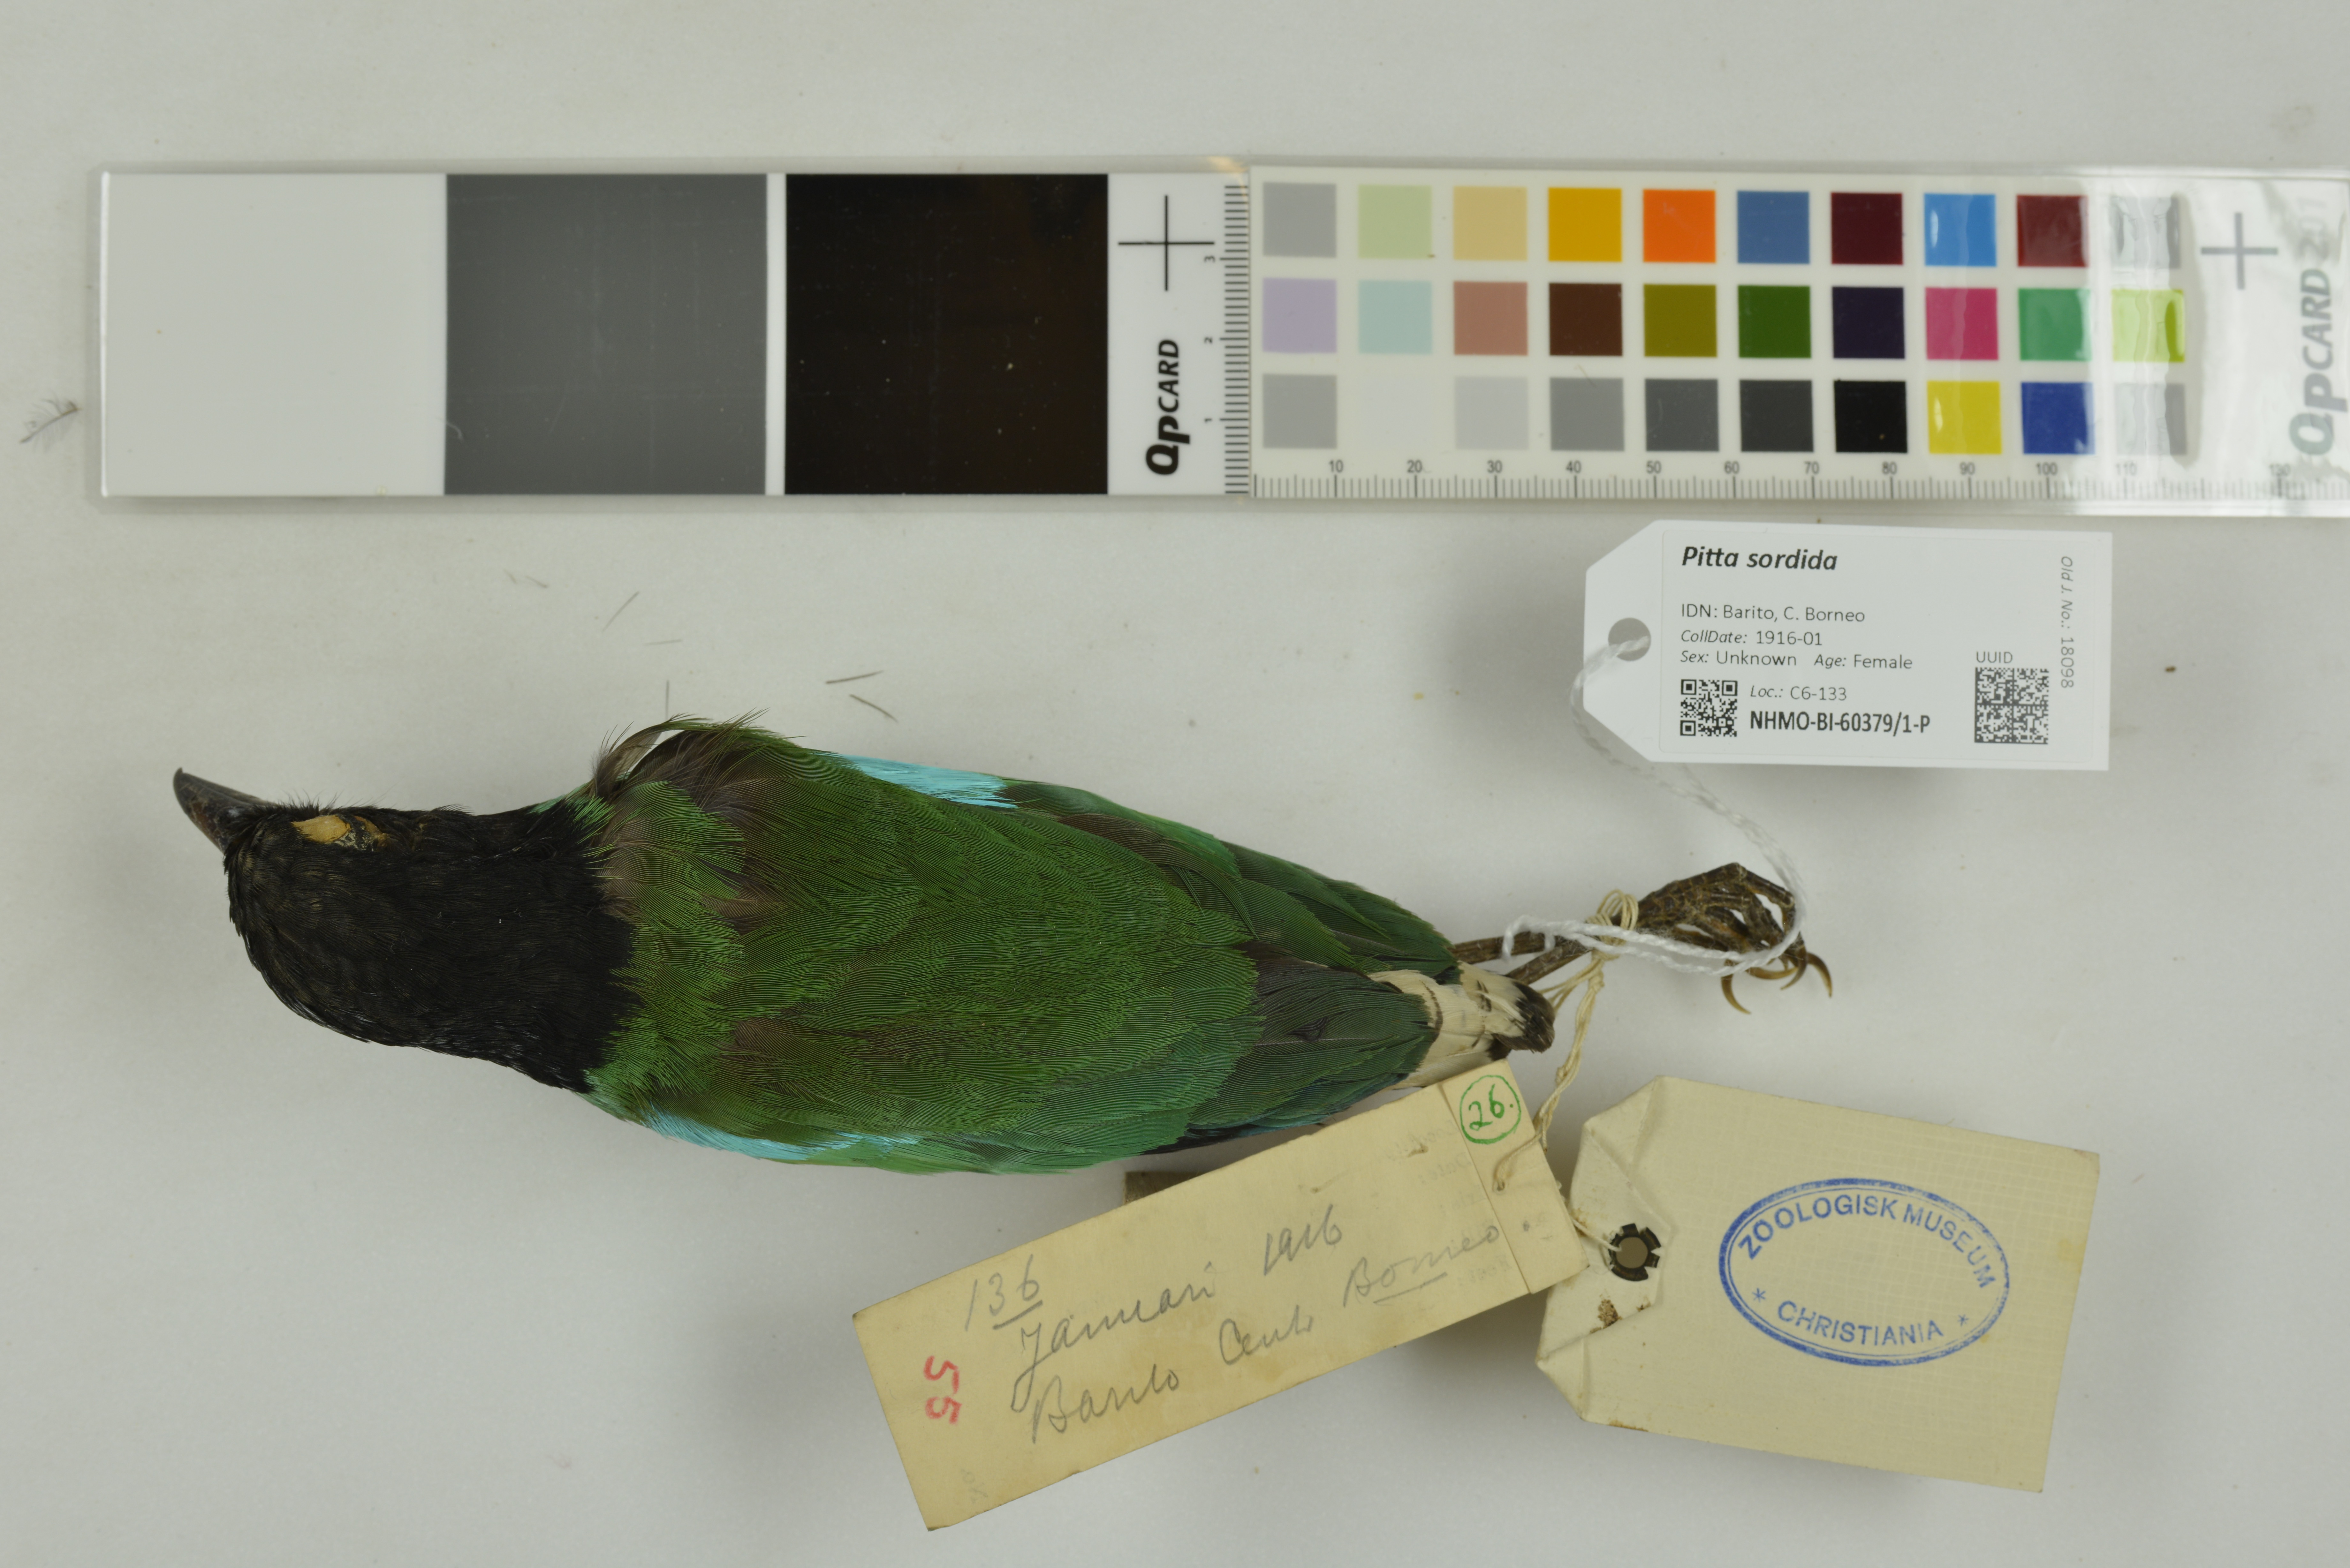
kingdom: Animalia
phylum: Chordata
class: Aves
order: Passeriformes
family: Pittidae
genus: Pitta
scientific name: Pitta sordida
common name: Hooded pitta
